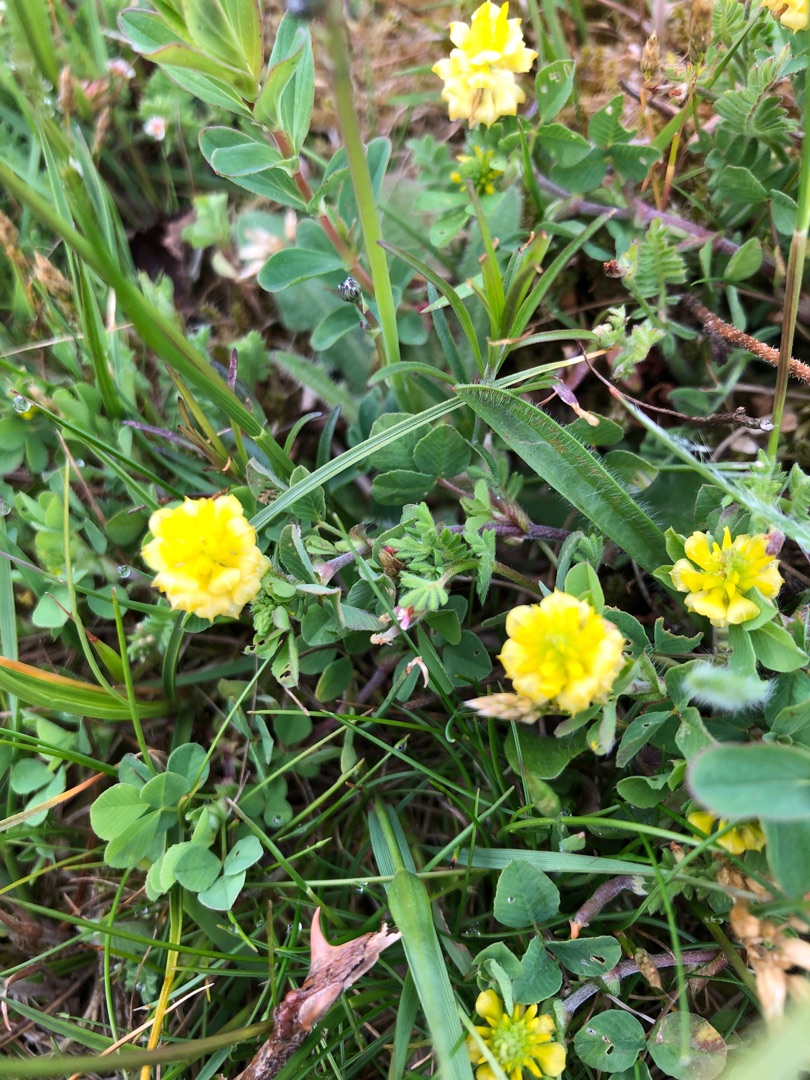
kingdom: Plantae
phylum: Tracheophyta
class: Magnoliopsida
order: Fabales
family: Fabaceae
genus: Trifolium
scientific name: Trifolium campestre
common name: Gul kløver
